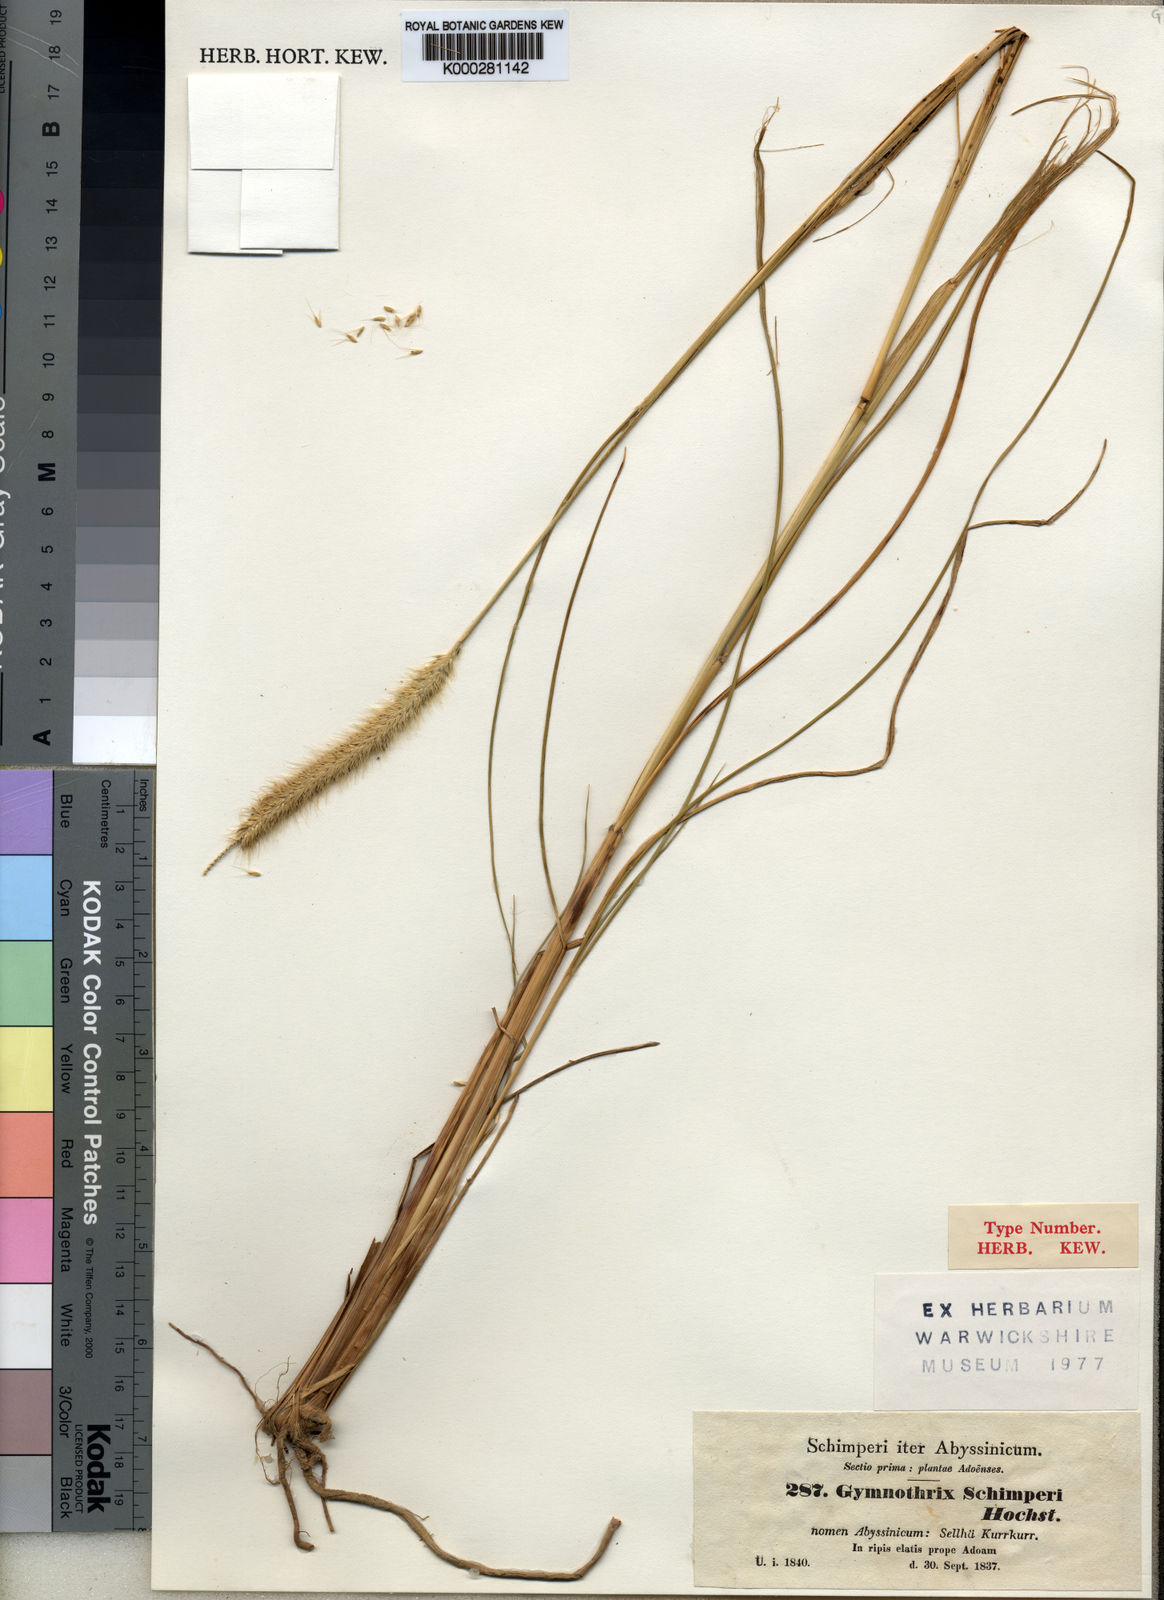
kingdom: Plantae
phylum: Tracheophyta
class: Liliopsida
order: Poales
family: Poaceae
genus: Cenchrus
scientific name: Cenchrus Pennisetum spec
